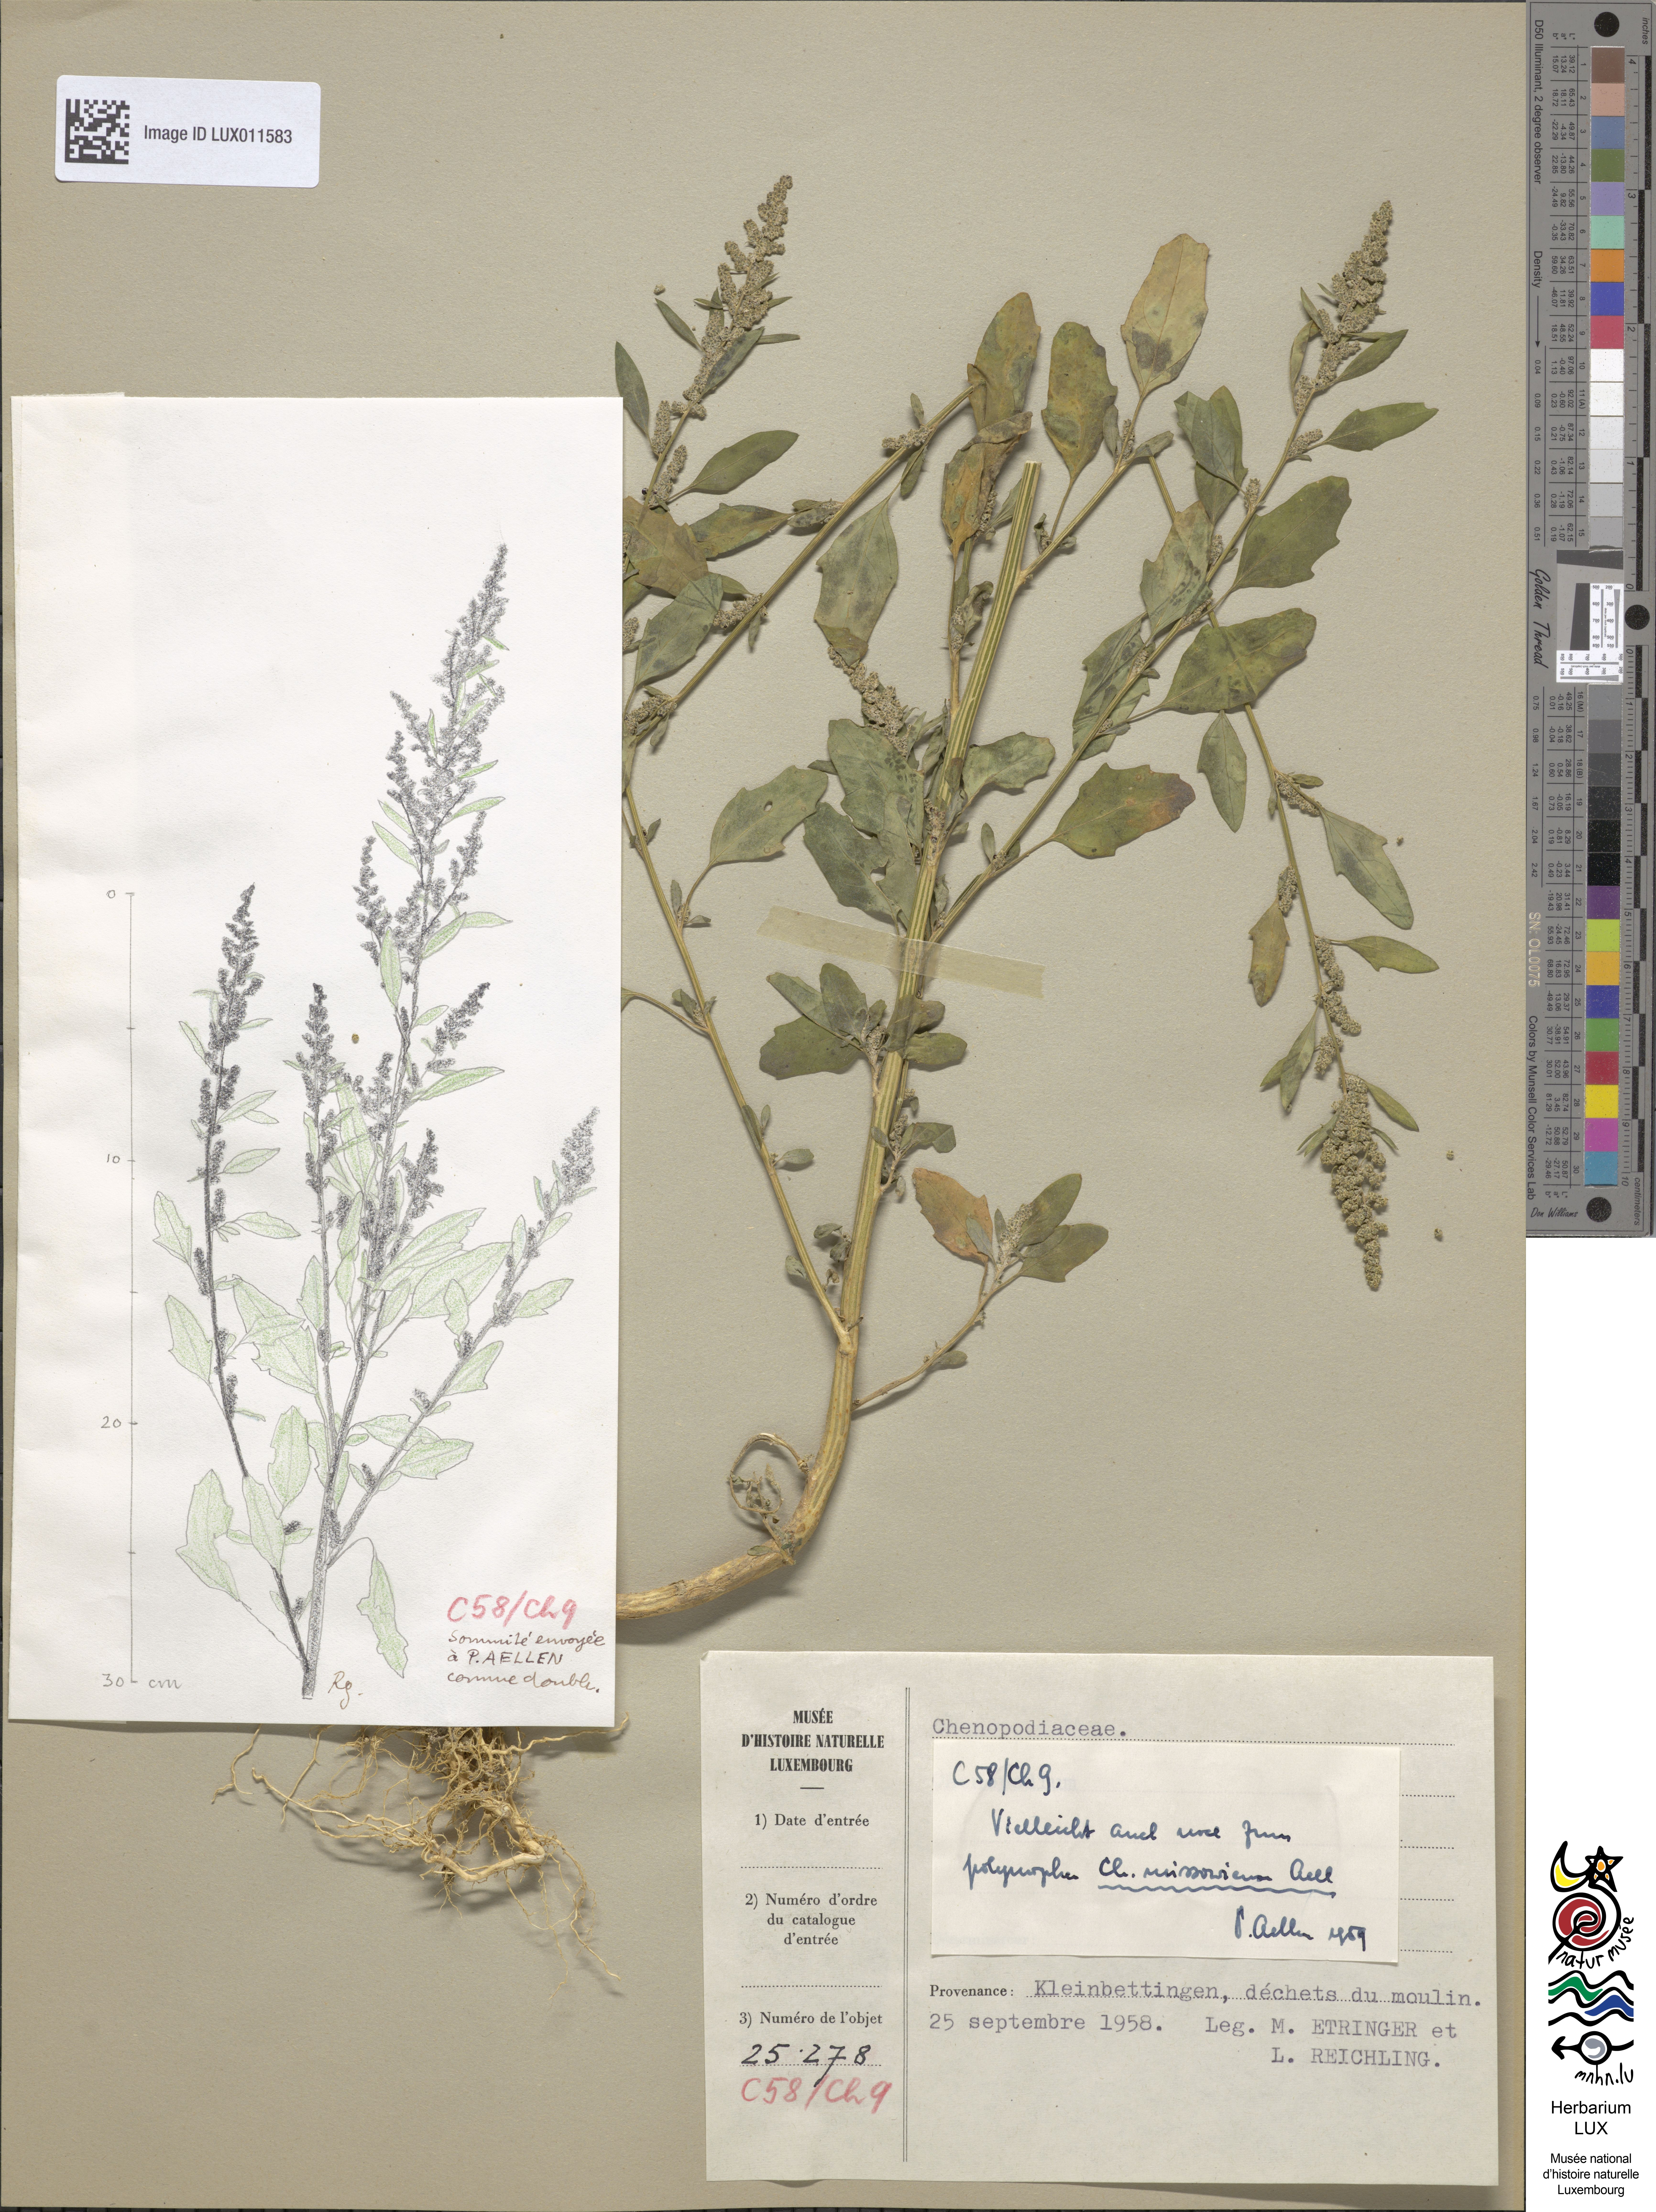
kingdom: Plantae
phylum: Tracheophyta
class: Magnoliopsida
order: Caryophyllales
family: Amaranthaceae
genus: Chenopodium
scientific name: Chenopodium album
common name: Fat-hen
